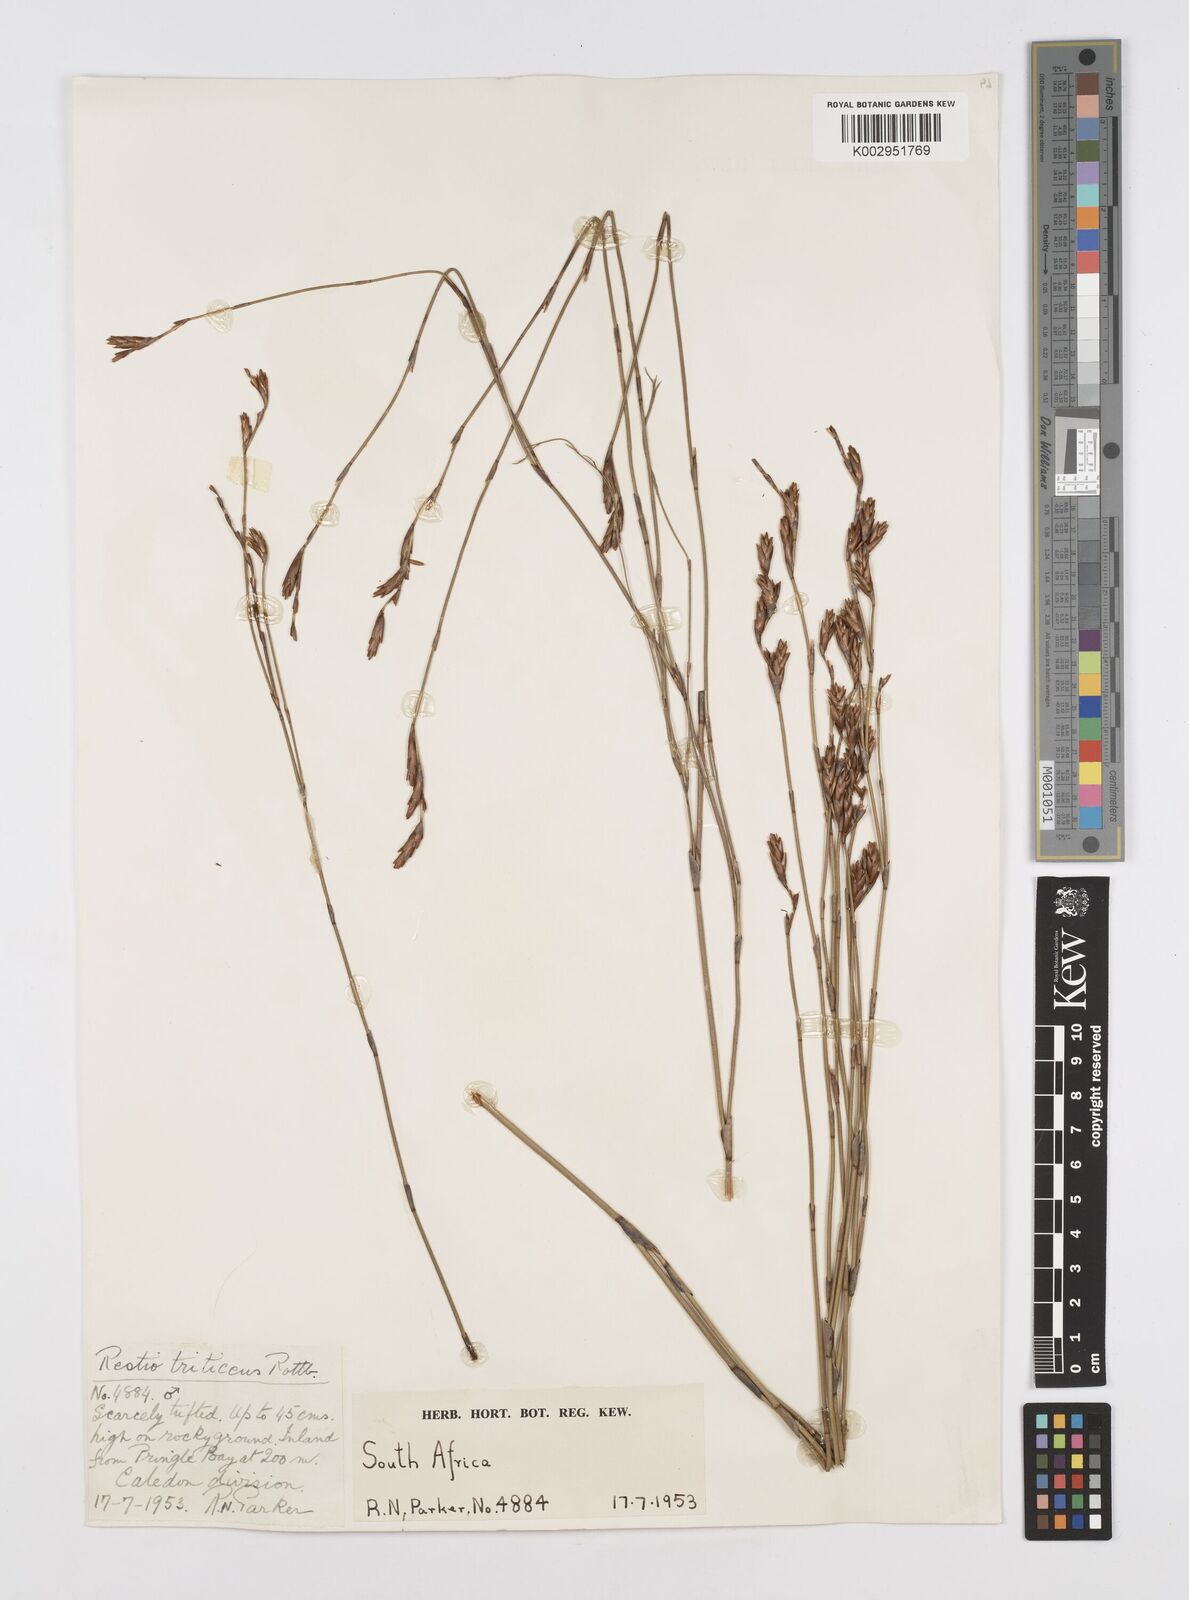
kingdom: Plantae
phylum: Tracheophyta
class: Liliopsida
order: Poales
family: Restionaceae
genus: Restio
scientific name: Restio triticeus
